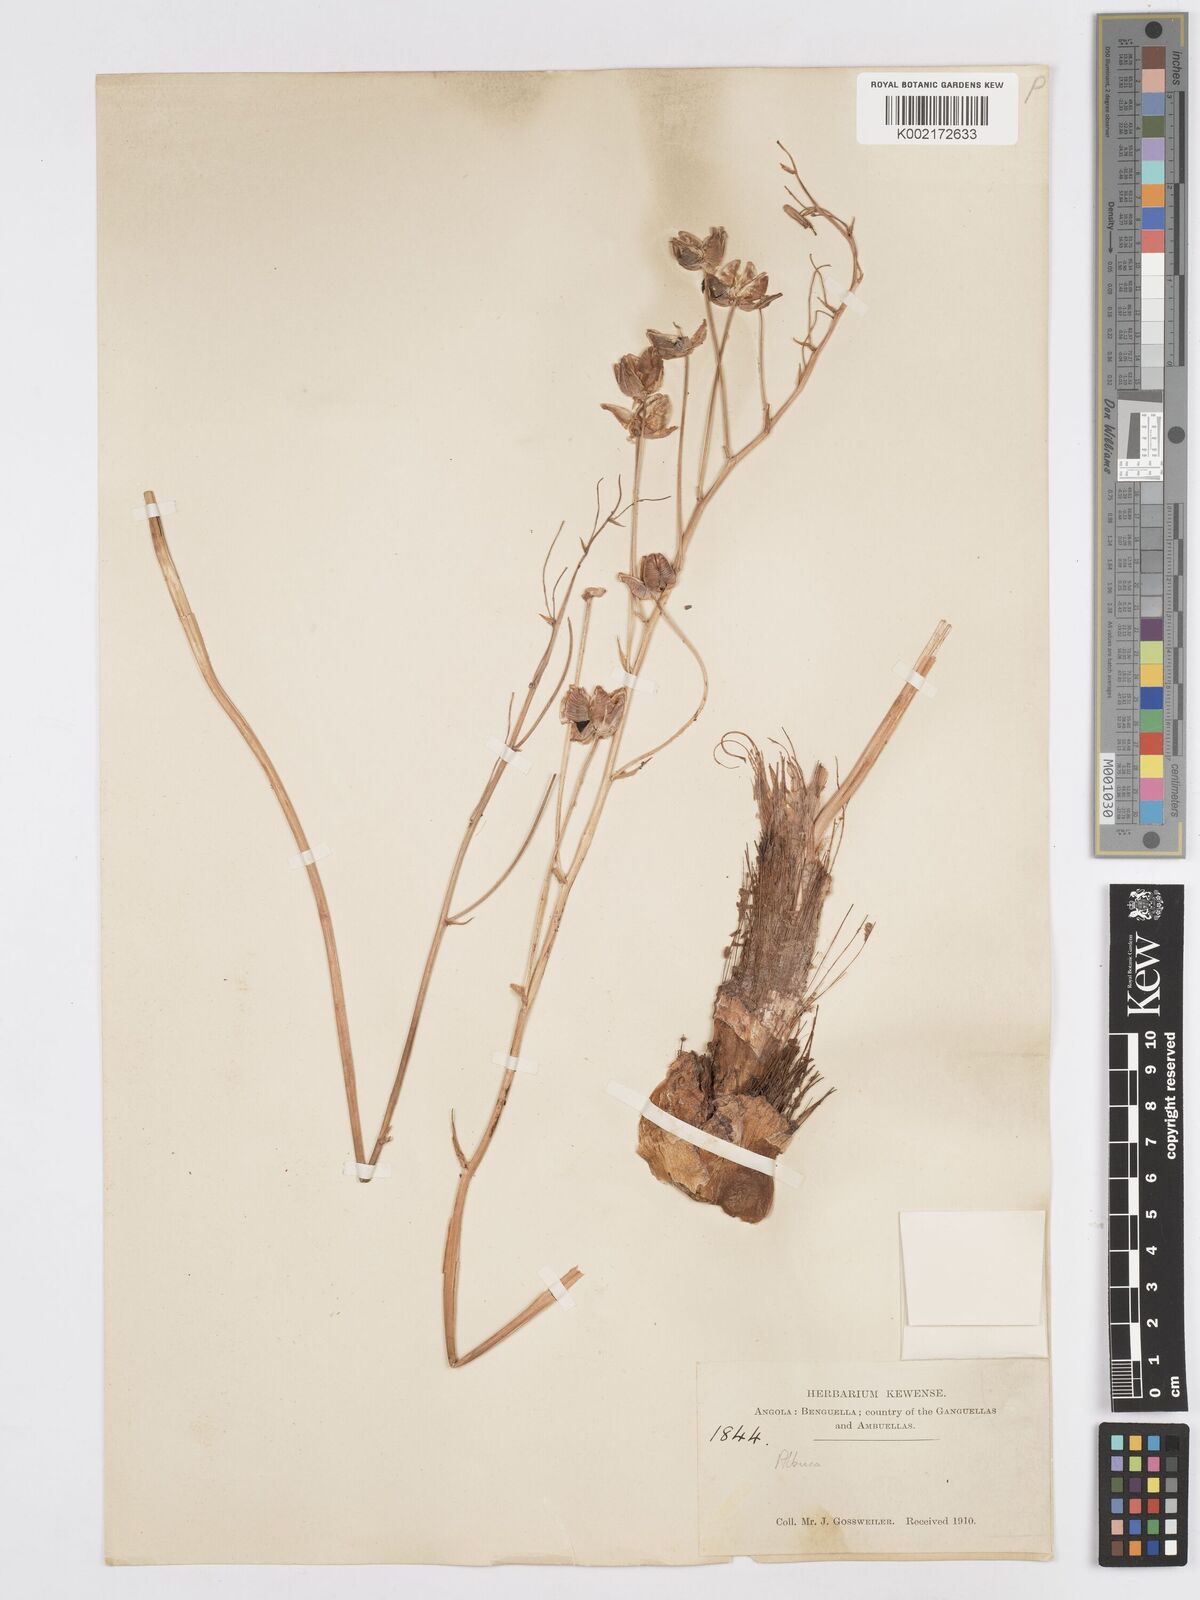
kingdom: Plantae
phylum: Tracheophyta
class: Liliopsida
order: Asparagales
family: Asparagaceae
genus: Albuca
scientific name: Albuca kirkii
